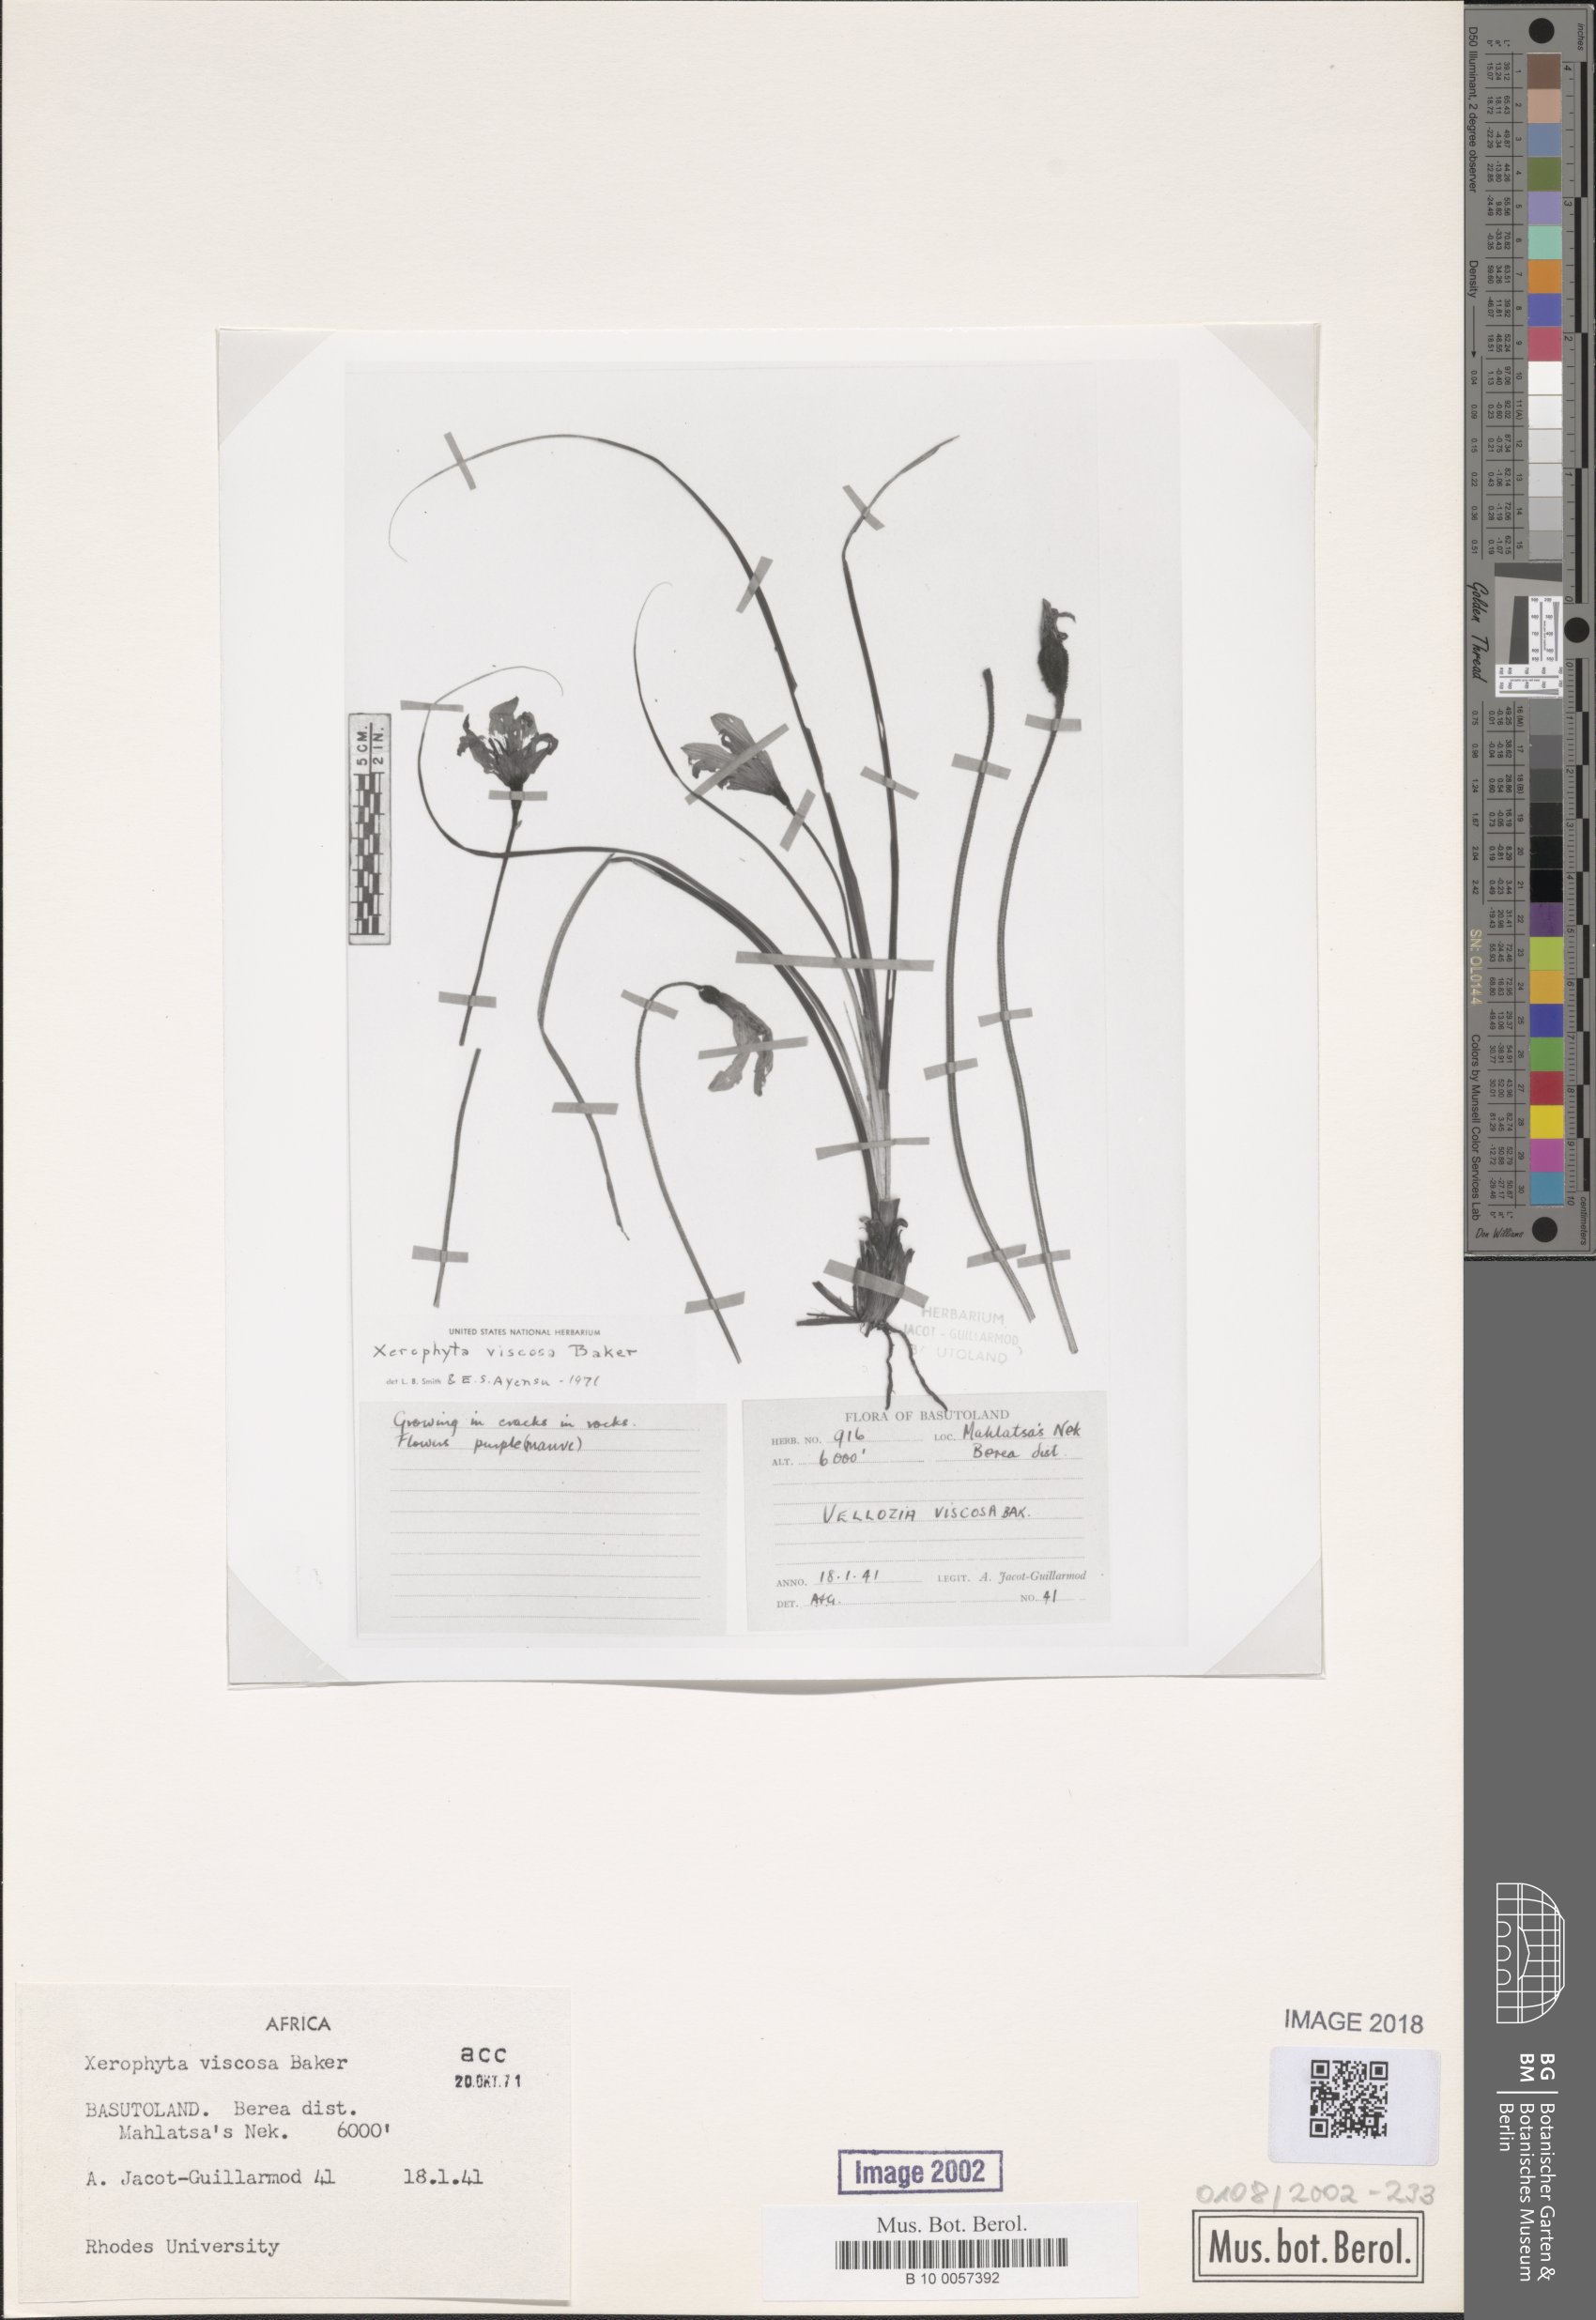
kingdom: Plantae
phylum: Tracheophyta
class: Liliopsida
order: Pandanales
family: Velloziaceae
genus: Xerophyta
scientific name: Xerophyta viscosa
